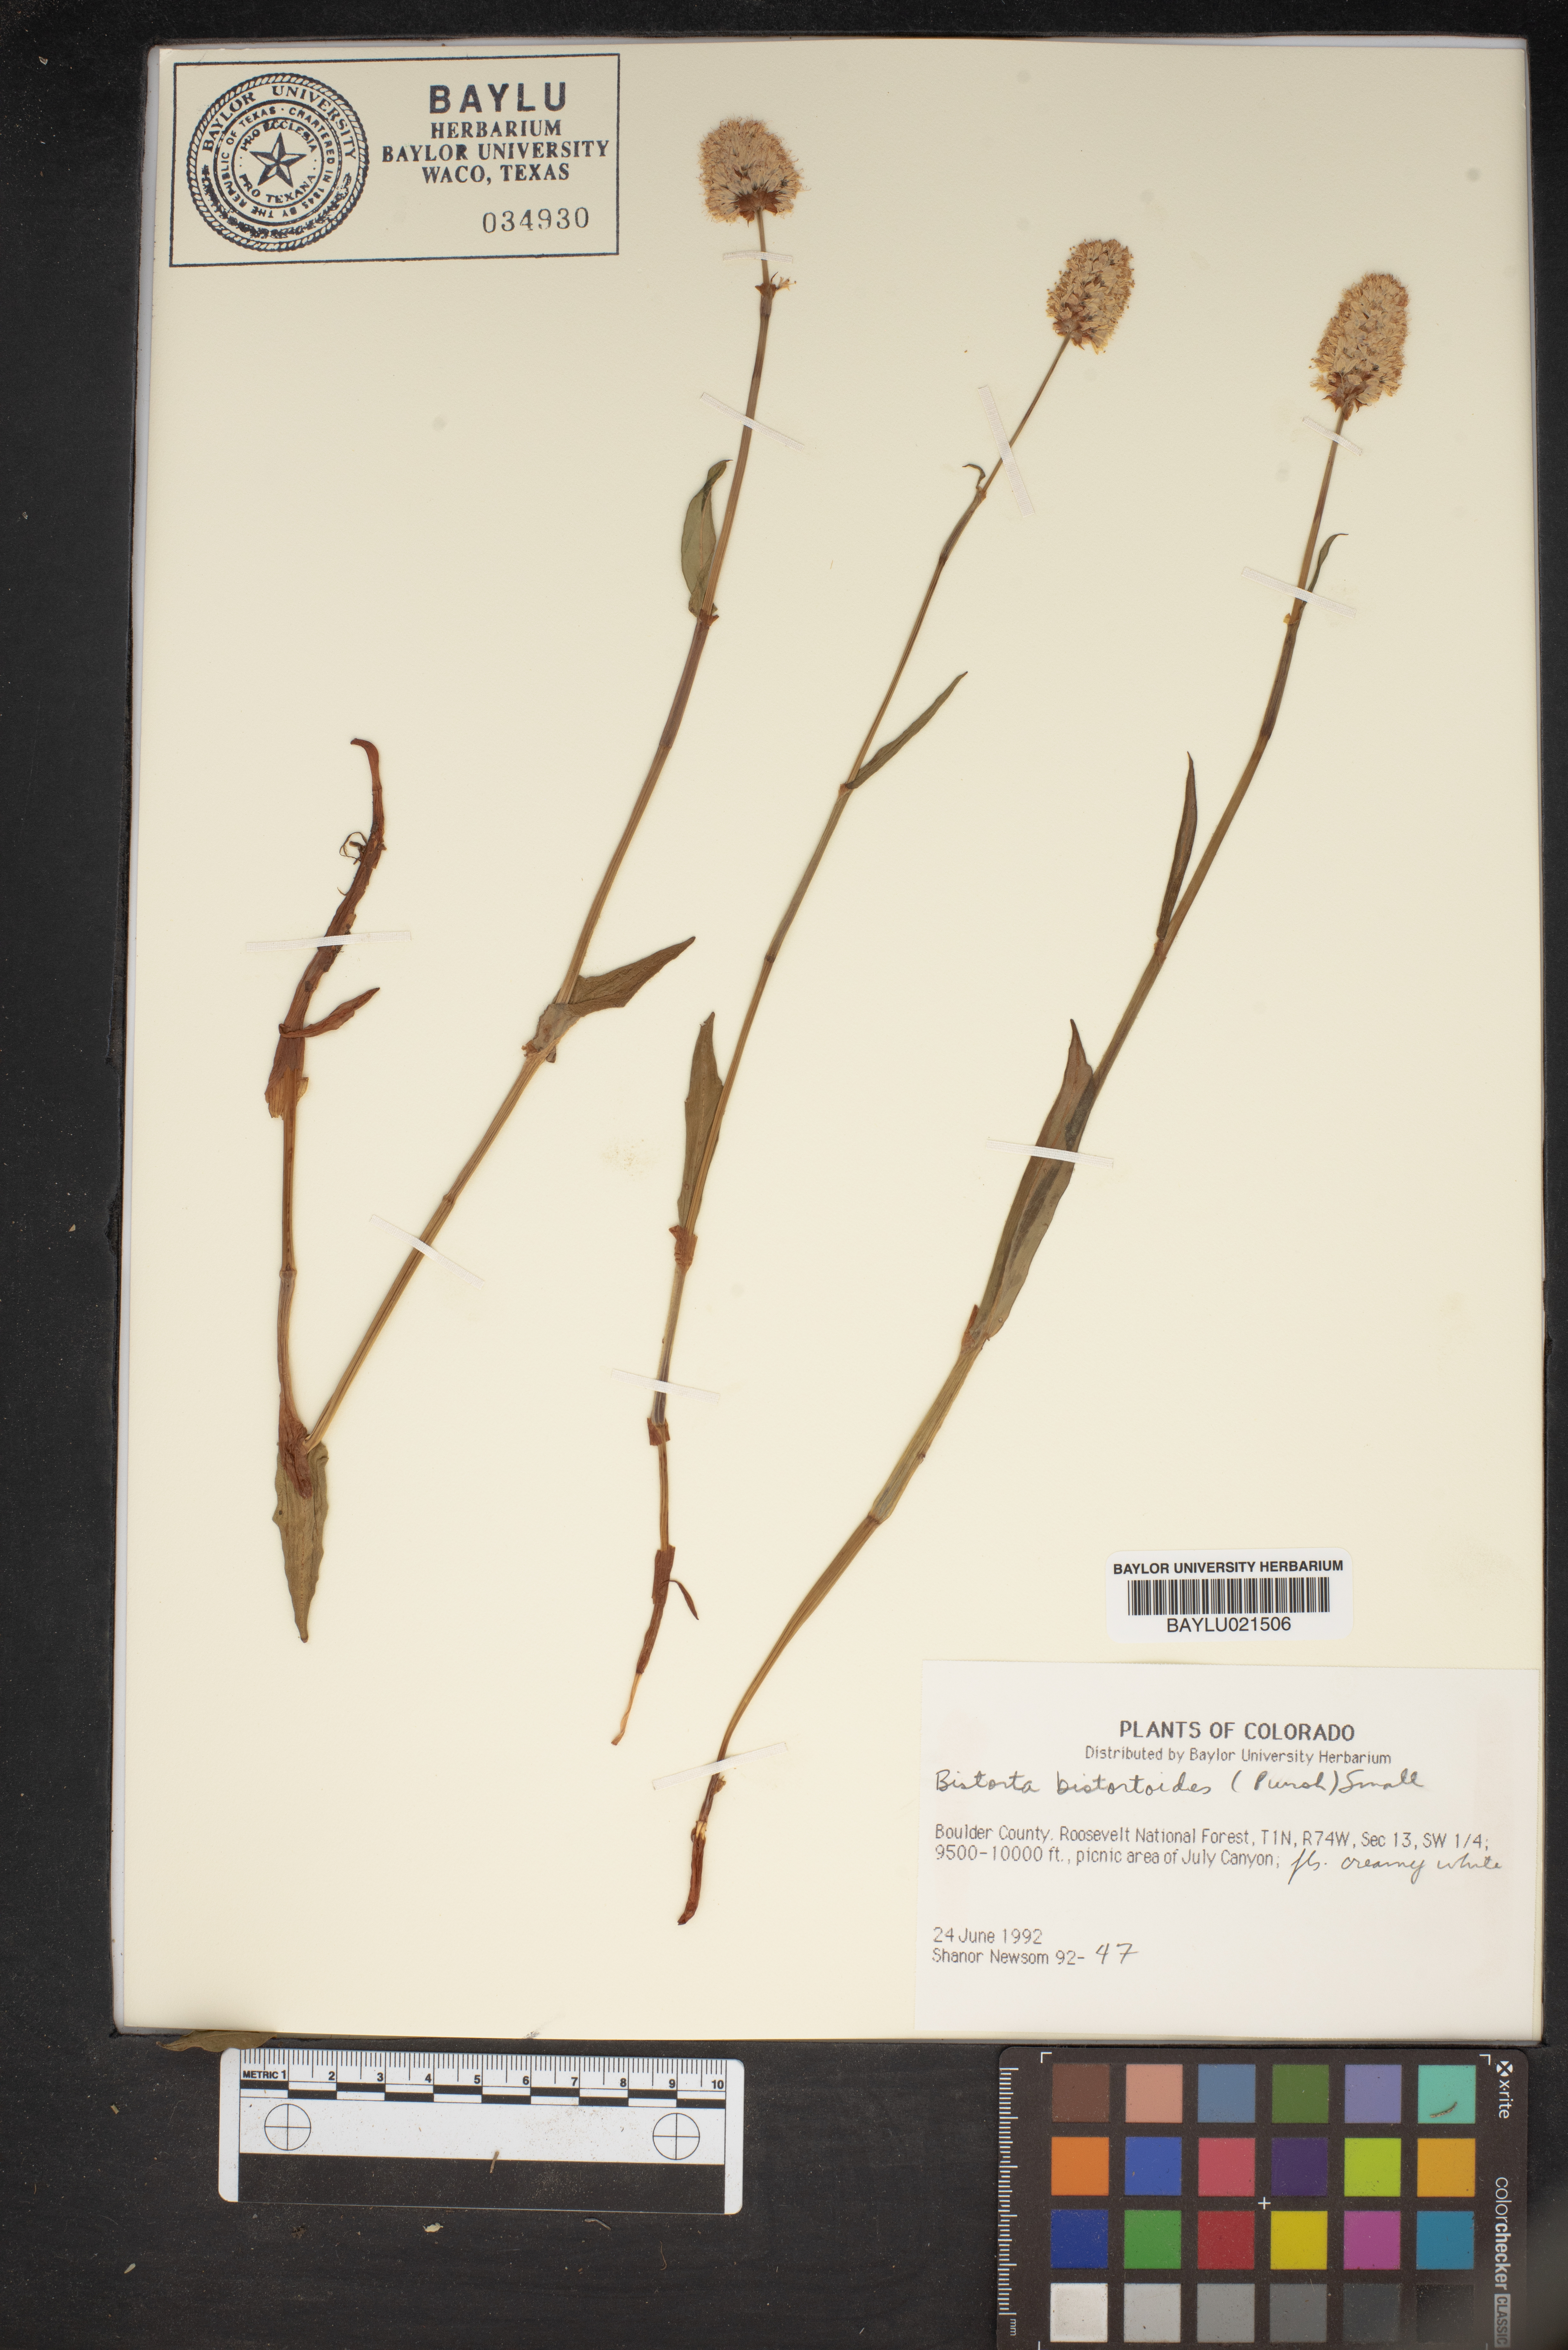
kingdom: Plantae
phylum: Tracheophyta
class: Magnoliopsida
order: Caryophyllales
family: Polygonaceae
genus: Bistorta
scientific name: Bistorta bistortoides
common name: American bistort
